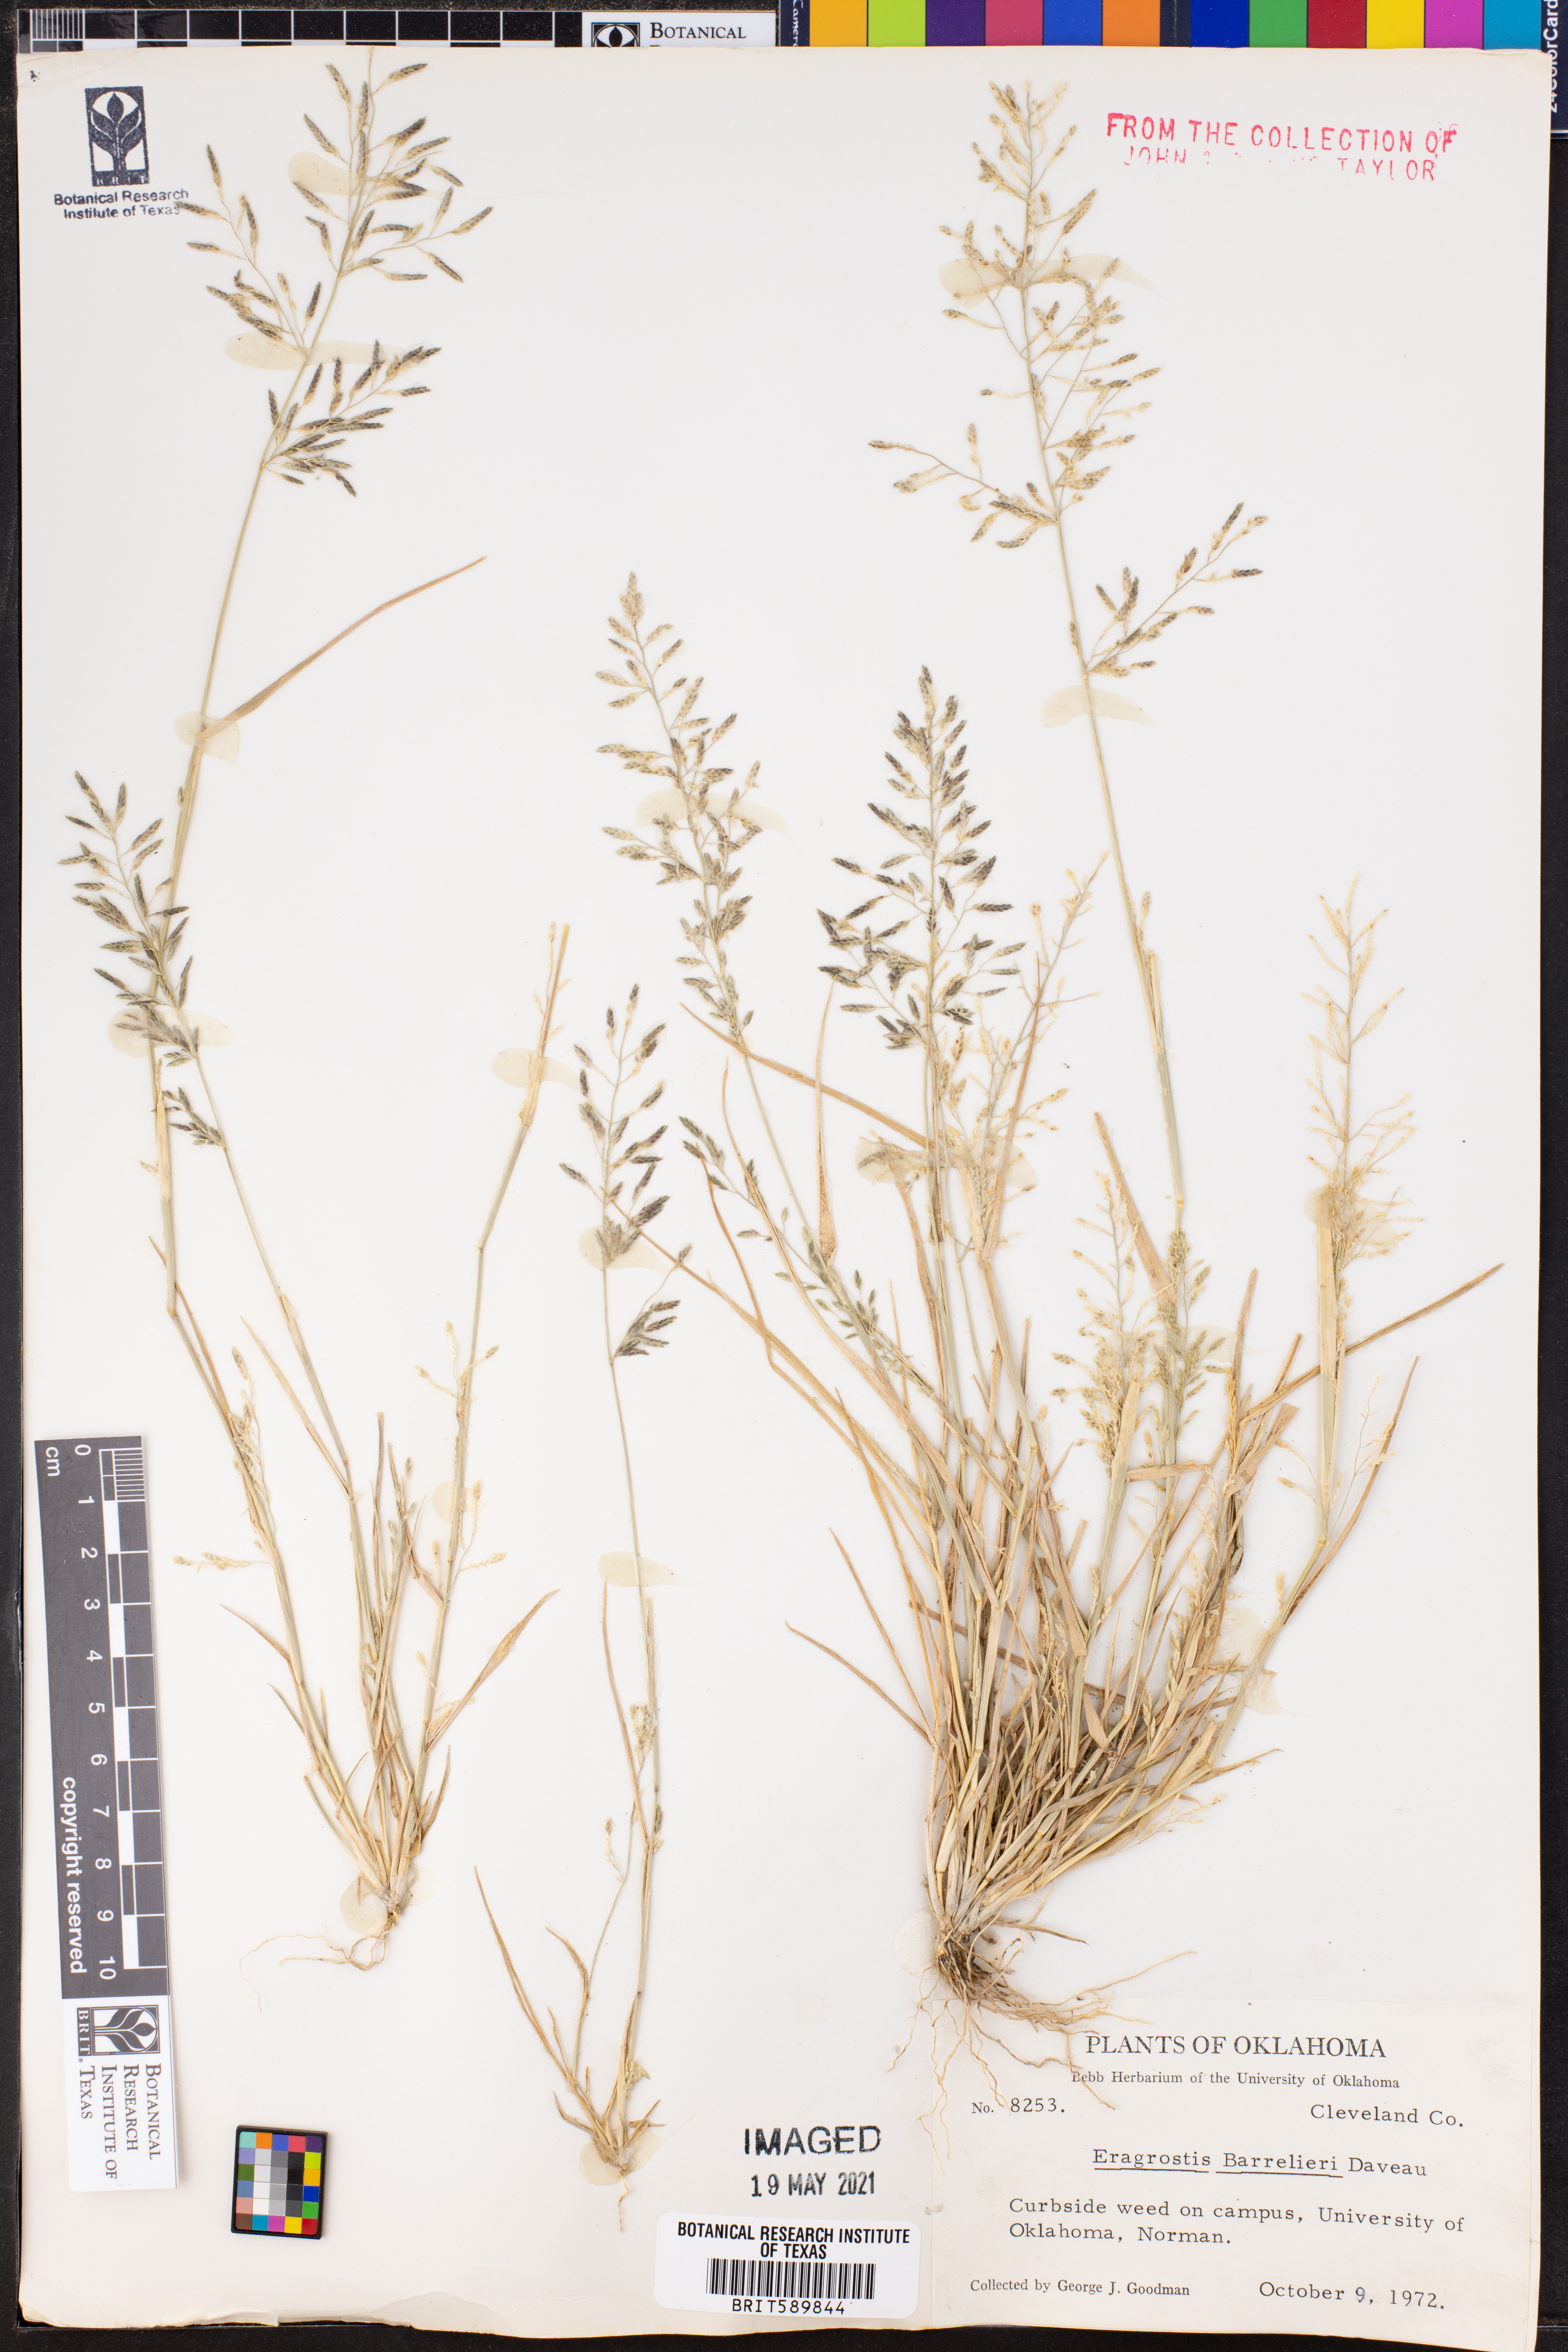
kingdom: Plantae
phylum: Tracheophyta
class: Liliopsida
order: Poales
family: Poaceae
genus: Eragrostis
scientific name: Eragrostis barrelieri
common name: Mediterranean lovegrass
